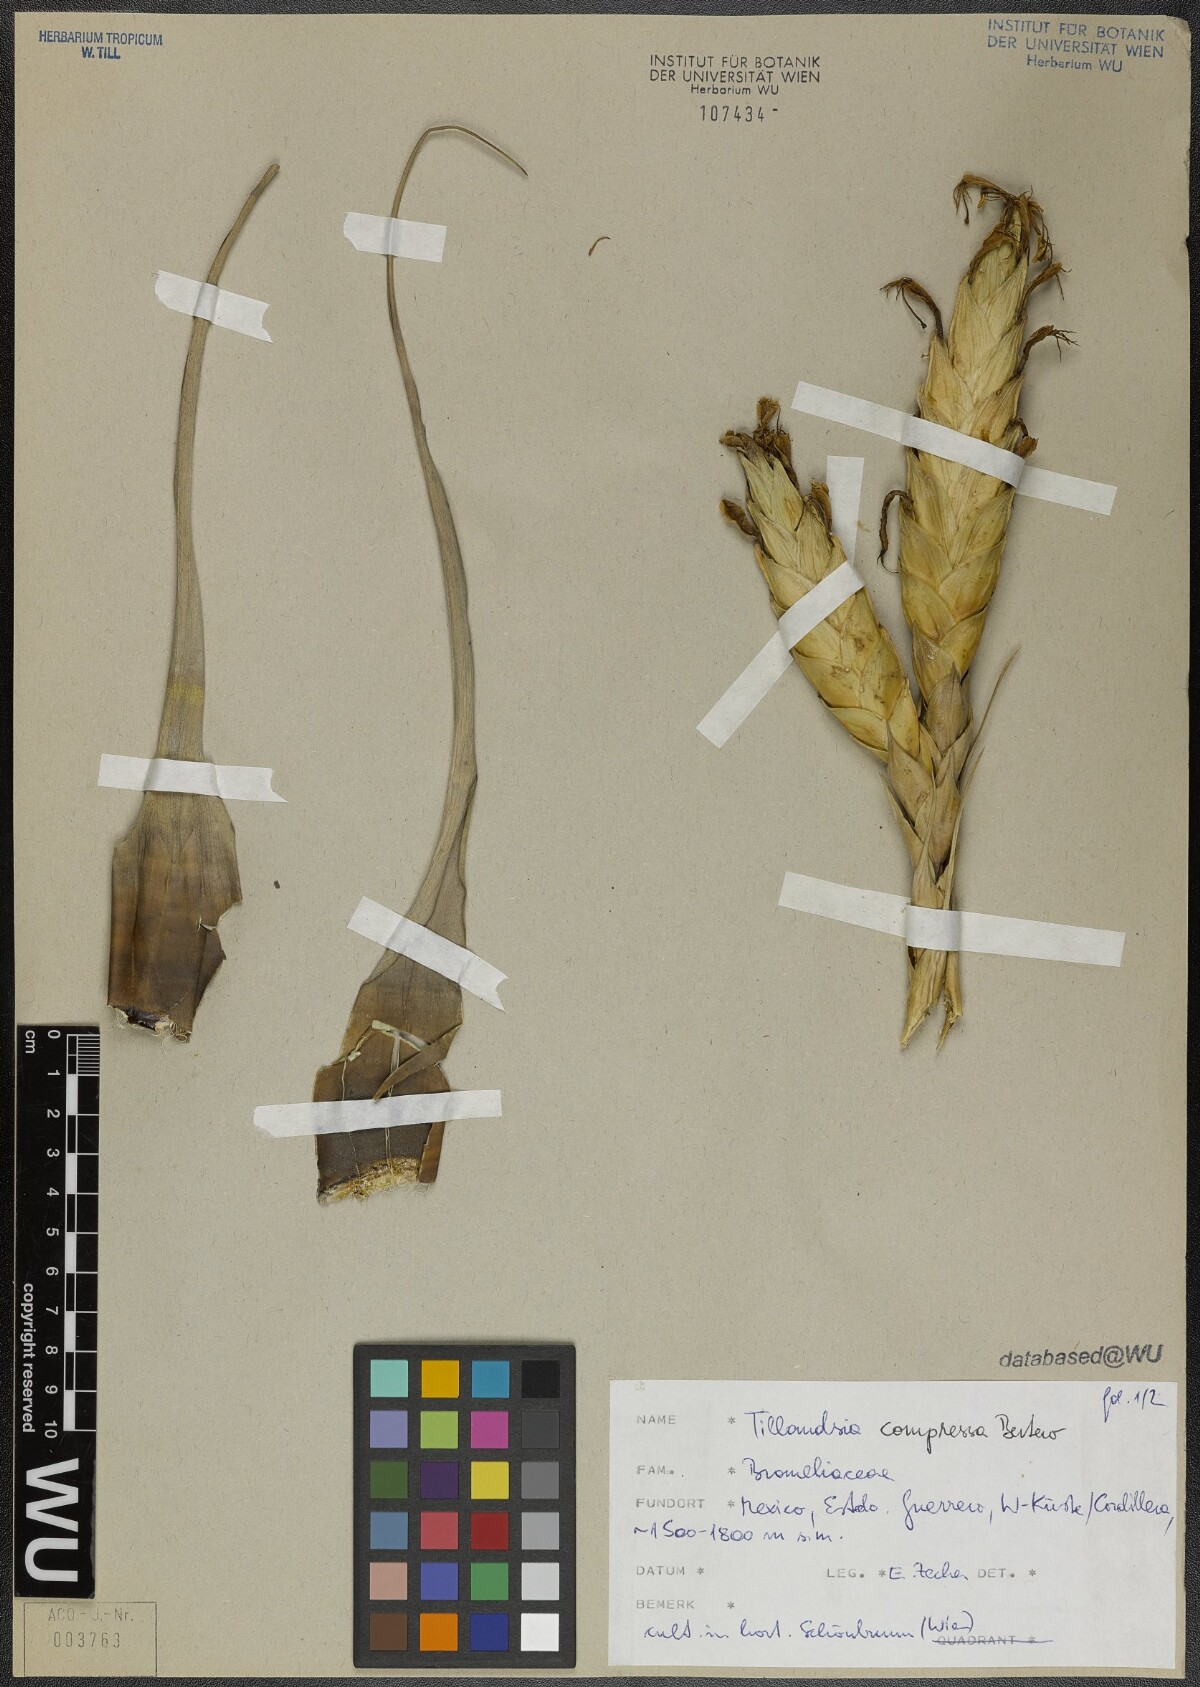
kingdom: Plantae
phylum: Tracheophyta
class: Liliopsida
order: Poales
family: Bromeliaceae
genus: Tillandsia
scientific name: Tillandsia compressa
